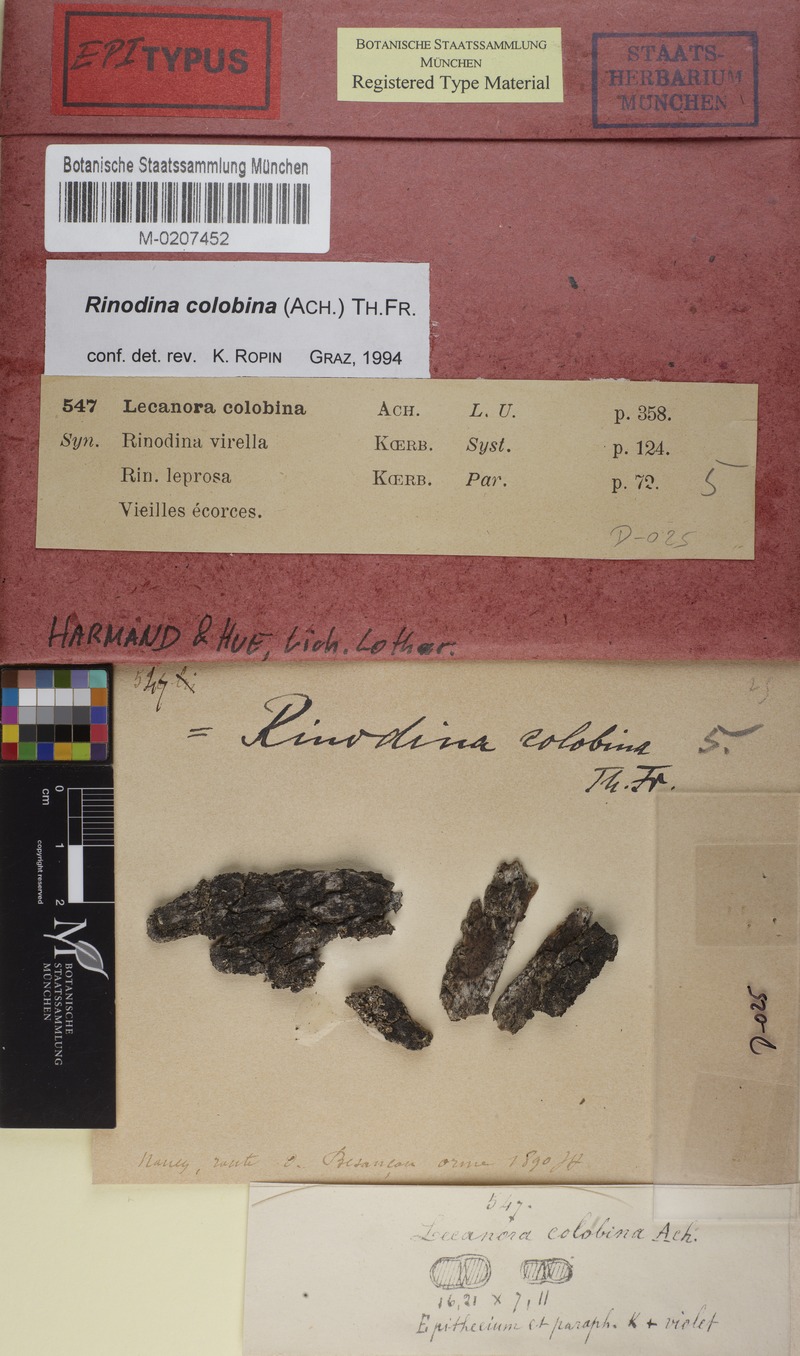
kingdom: Fungi
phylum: Ascomycota
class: Lecanoromycetes
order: Caliciales
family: Physciaceae
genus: Rinodina
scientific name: Rinodina colobina
